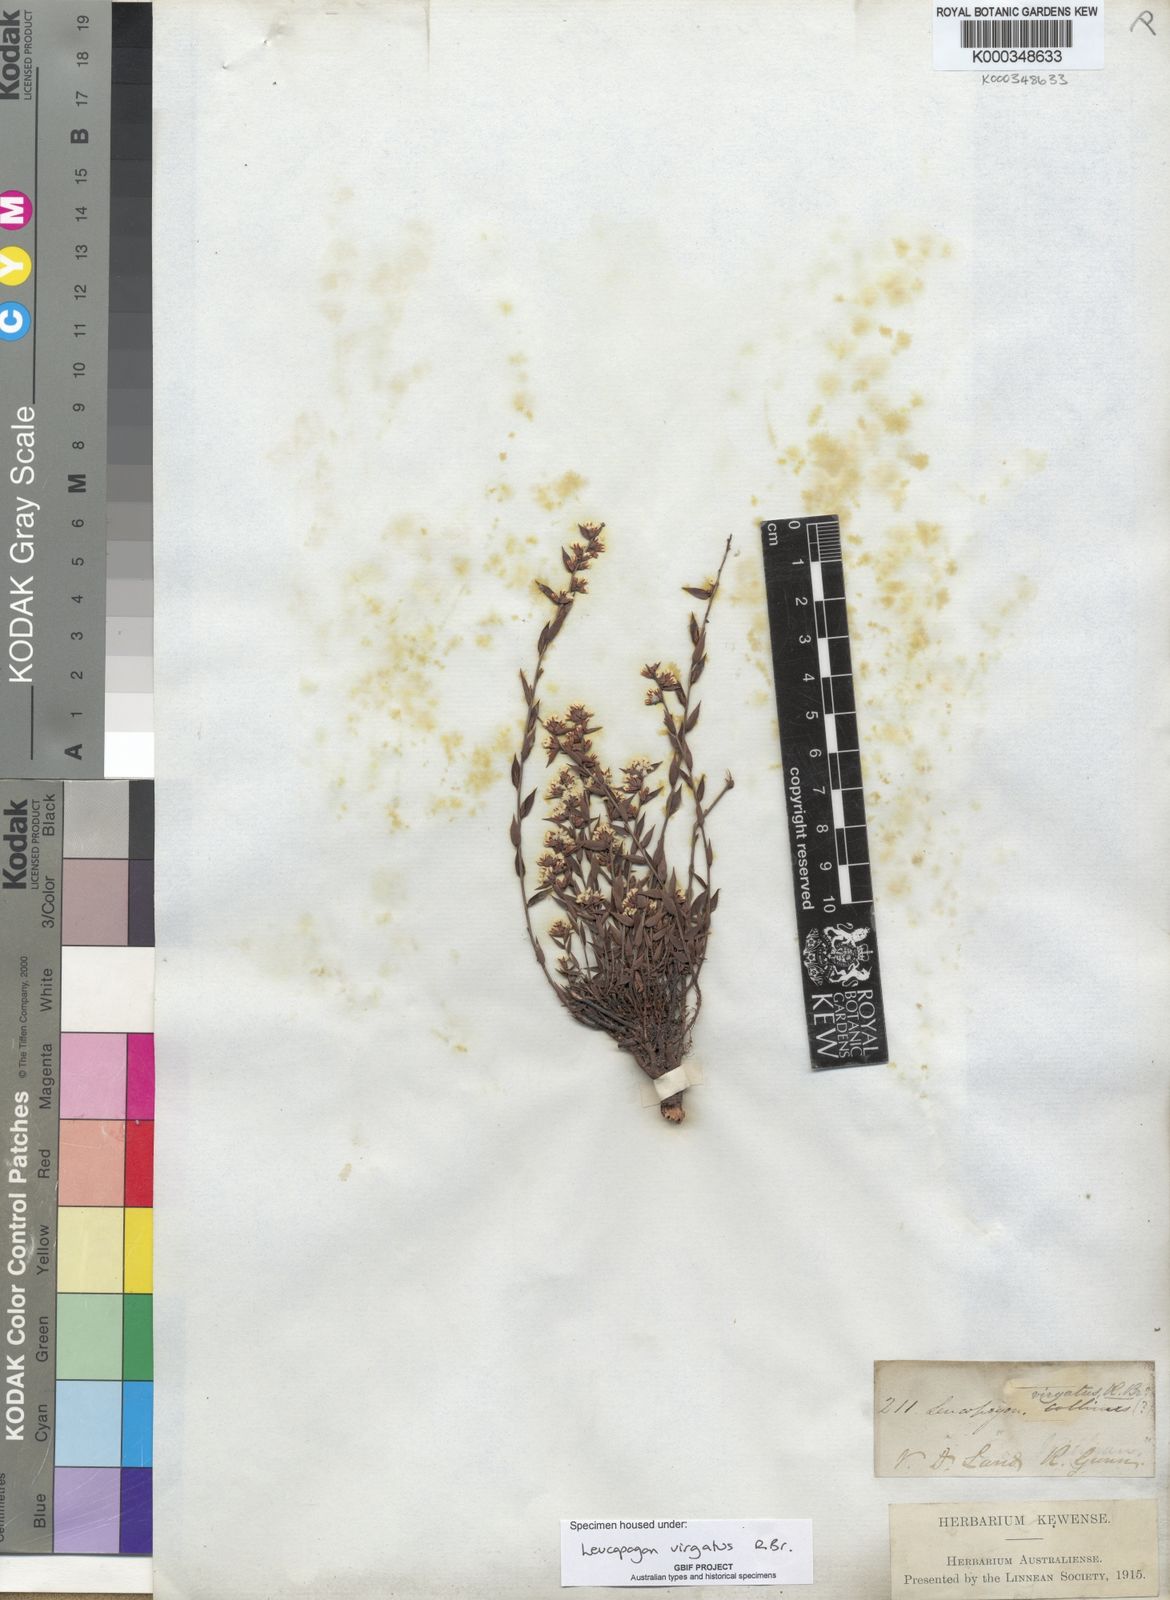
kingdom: Plantae
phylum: Tracheophyta
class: Magnoliopsida
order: Ericales
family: Ericaceae
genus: Leucopogon
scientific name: Leucopogon virgatus
